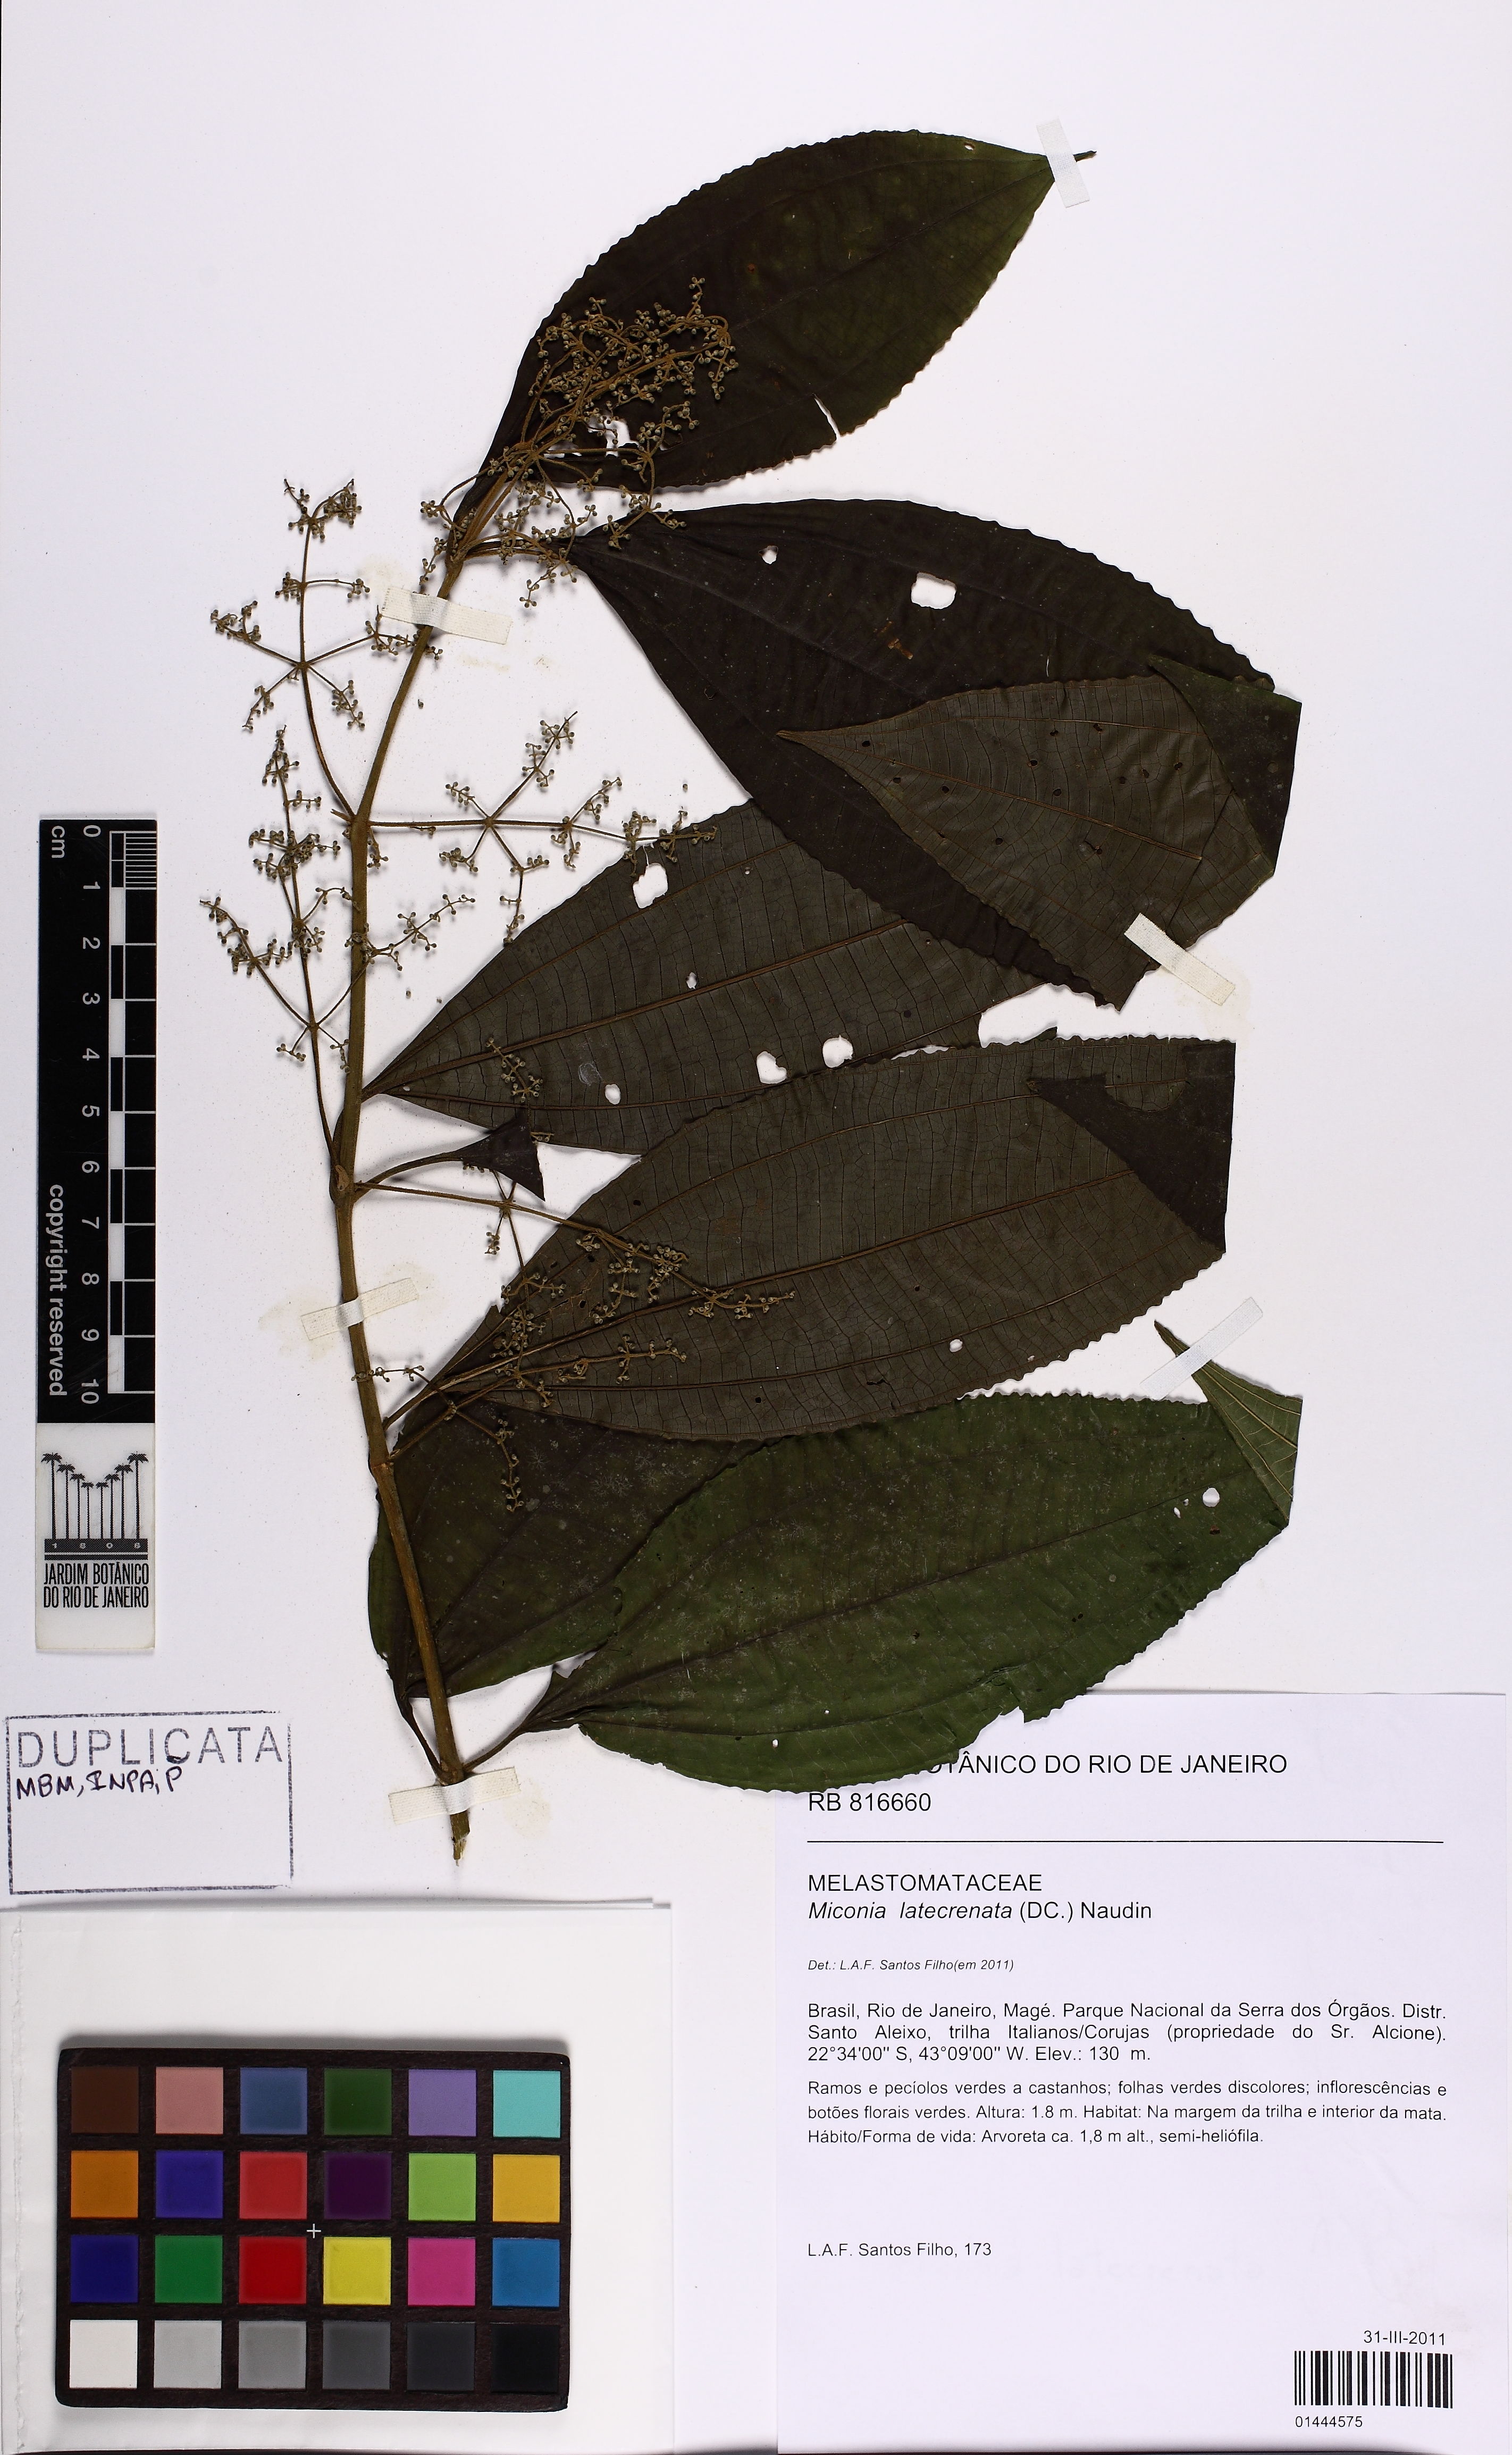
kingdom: Plantae
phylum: Tracheophyta
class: Magnoliopsida
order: Myrtales
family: Melastomataceae
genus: Miconia
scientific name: Miconia latecrenata
